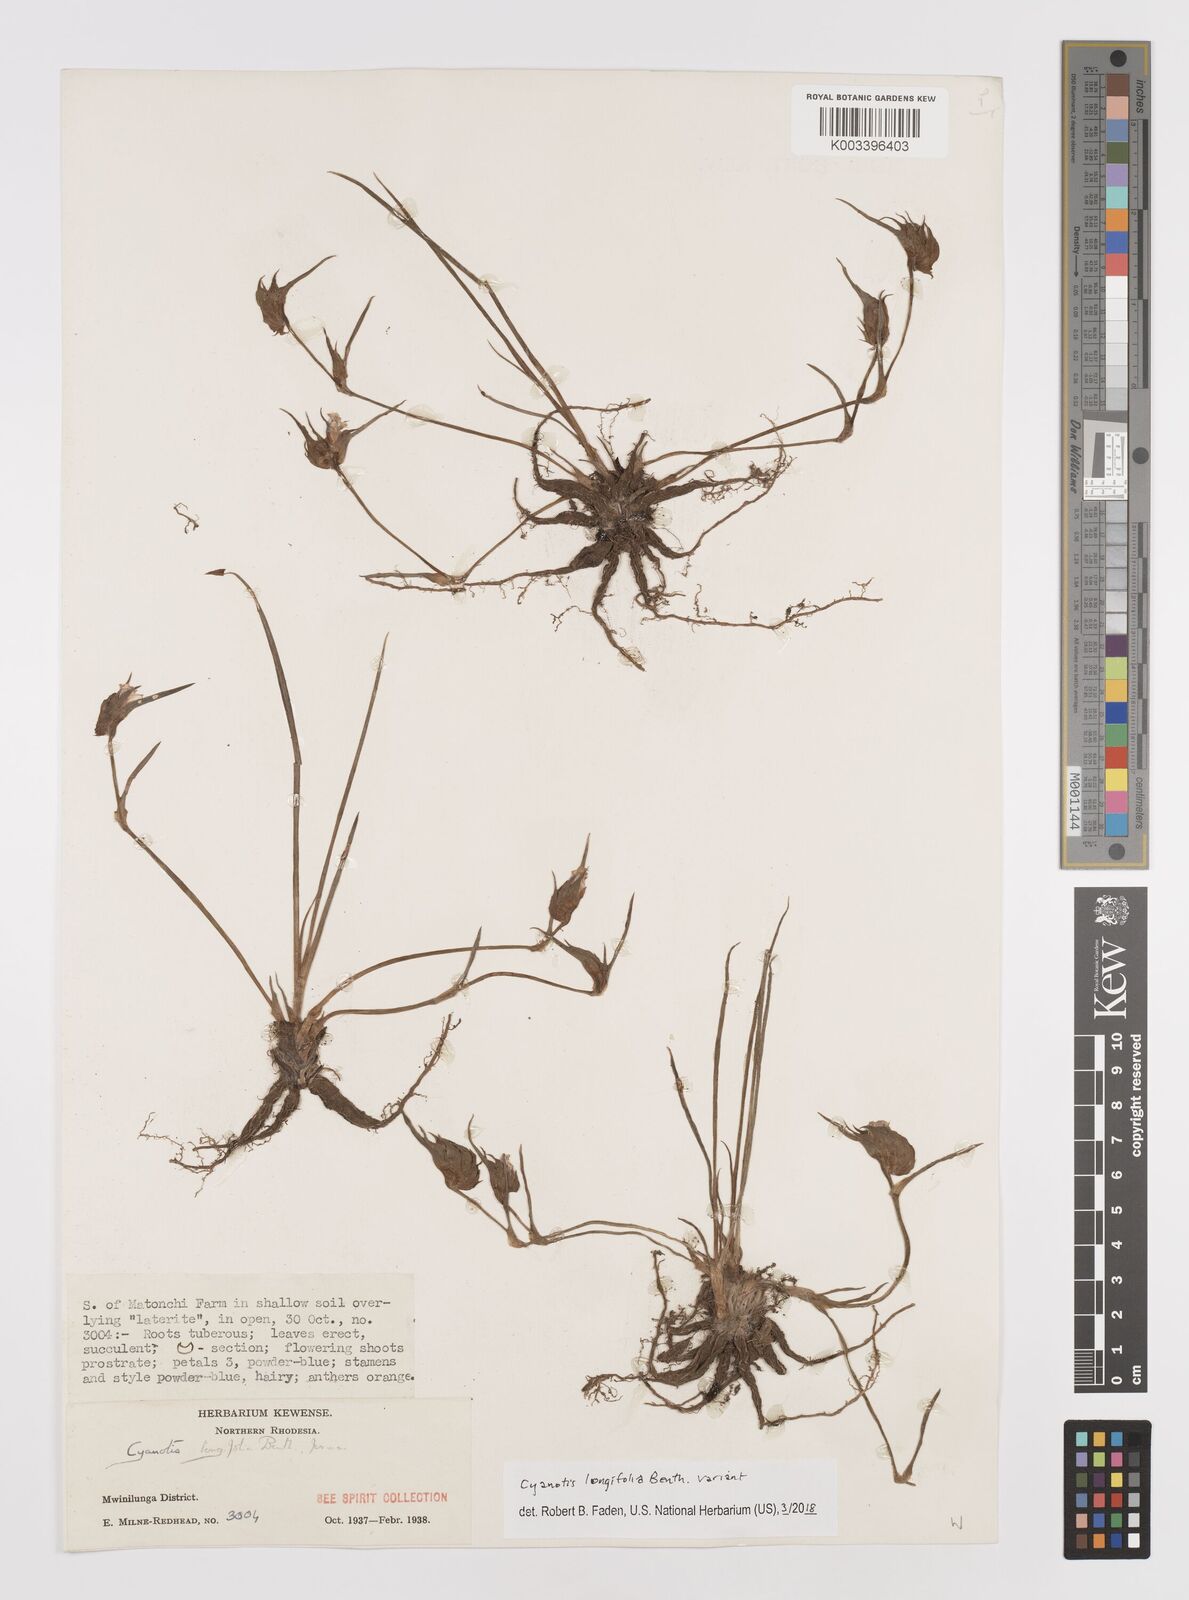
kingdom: Plantae
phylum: Tracheophyta
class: Liliopsida
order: Commelinales
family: Commelinaceae
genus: Cyanotis
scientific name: Cyanotis longifolia
